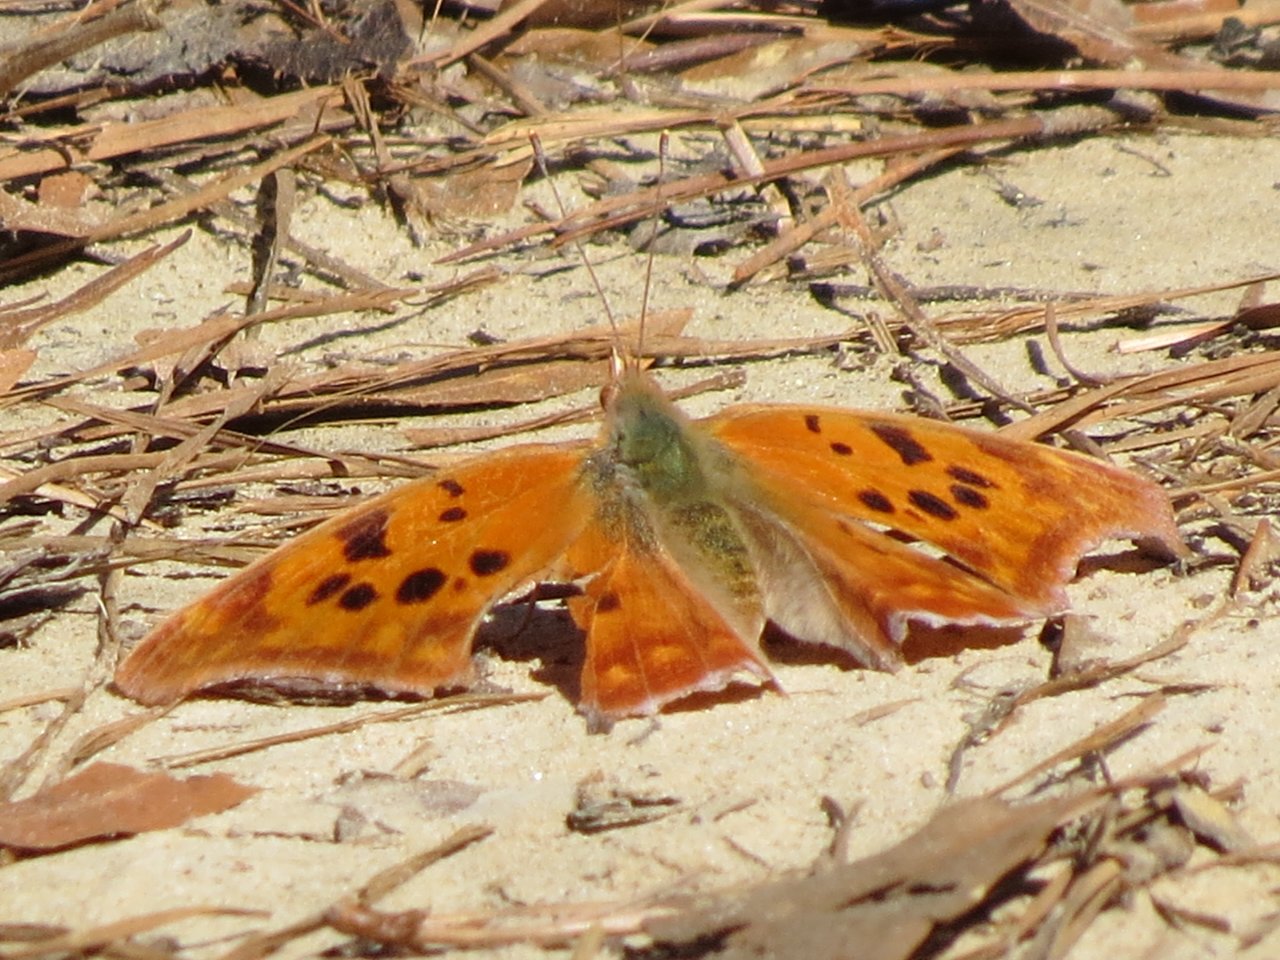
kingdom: Animalia
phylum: Arthropoda
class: Insecta
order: Lepidoptera
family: Nymphalidae
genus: Polygonia
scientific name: Polygonia interrogationis
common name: Question Mark
